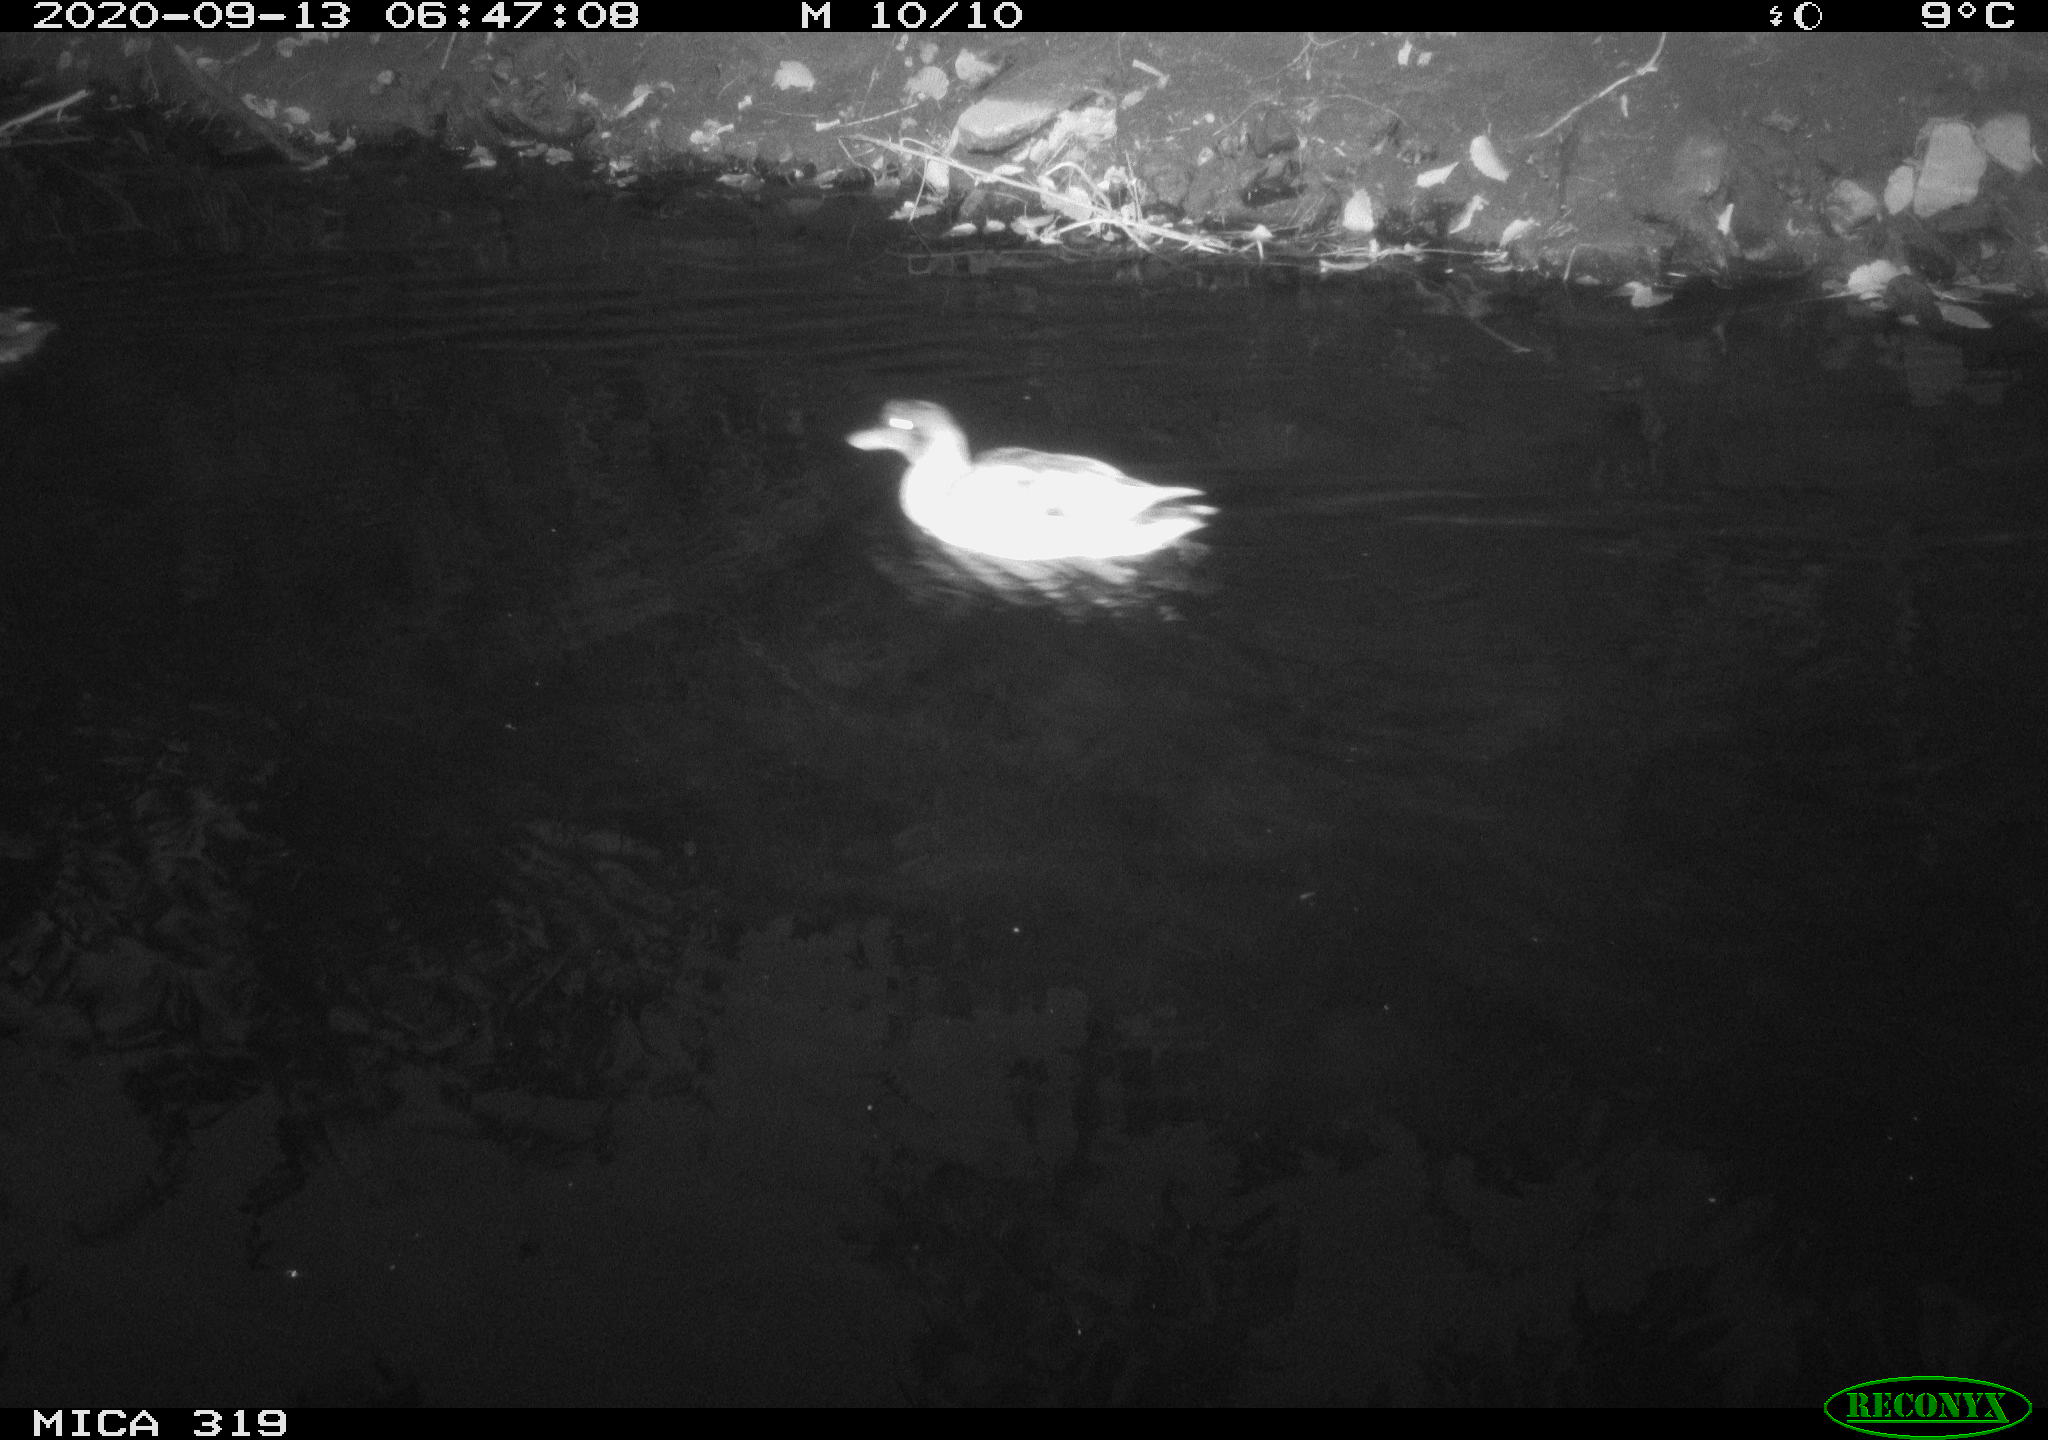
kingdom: Animalia
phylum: Chordata
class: Aves
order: Anseriformes
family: Anatidae
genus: Anas
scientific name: Anas platyrhynchos
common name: Mallard
